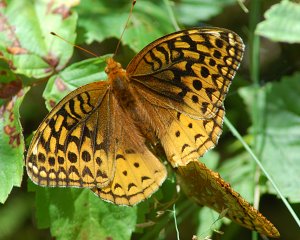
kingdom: Animalia
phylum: Arthropoda
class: Insecta
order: Lepidoptera
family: Nymphalidae
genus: Speyeria
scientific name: Speyeria cybele
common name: Great Spangled Fritillary
